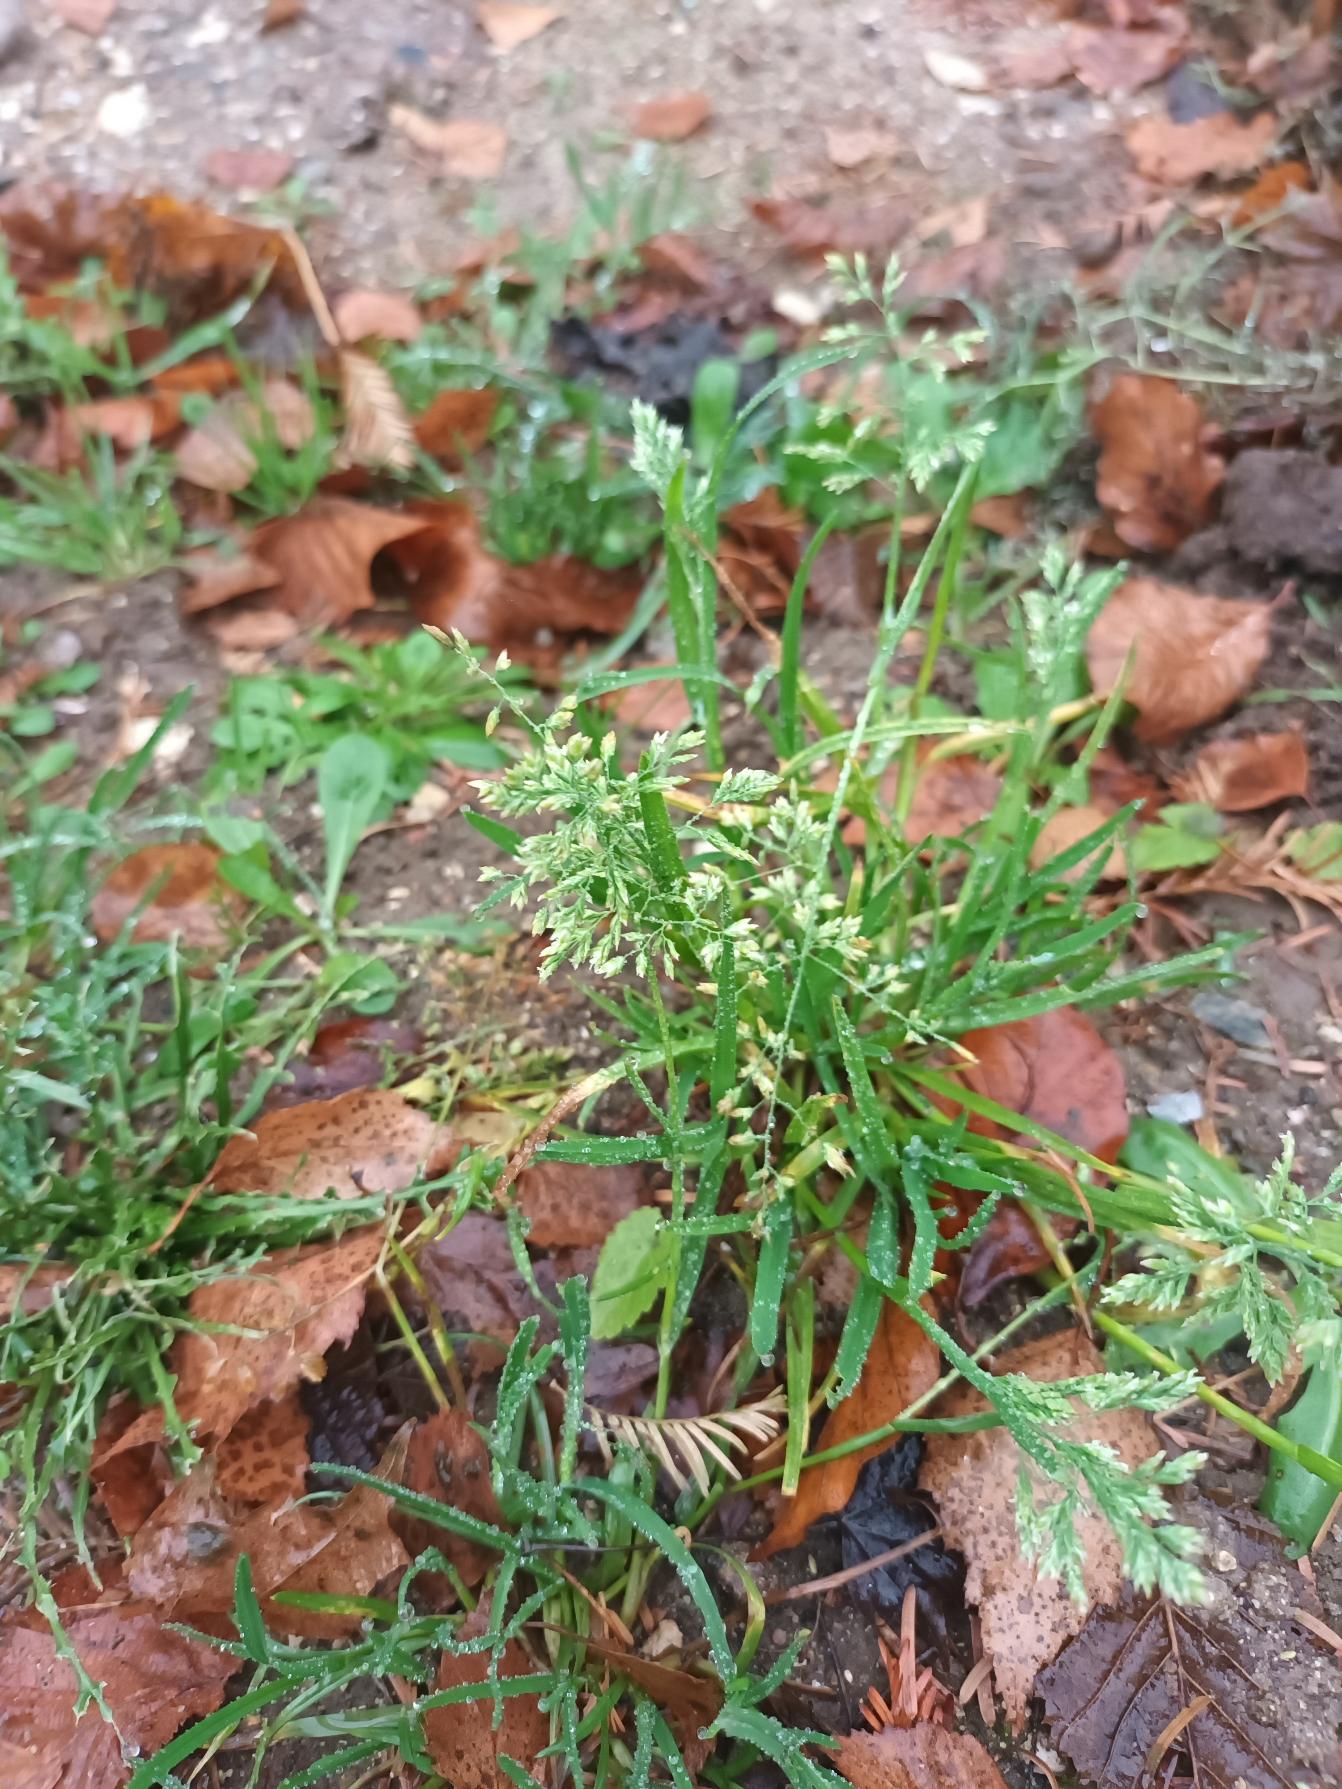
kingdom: Plantae
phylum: Tracheophyta
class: Liliopsida
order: Poales
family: Poaceae
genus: Poa
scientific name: Poa annua
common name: Enårig rapgræs
